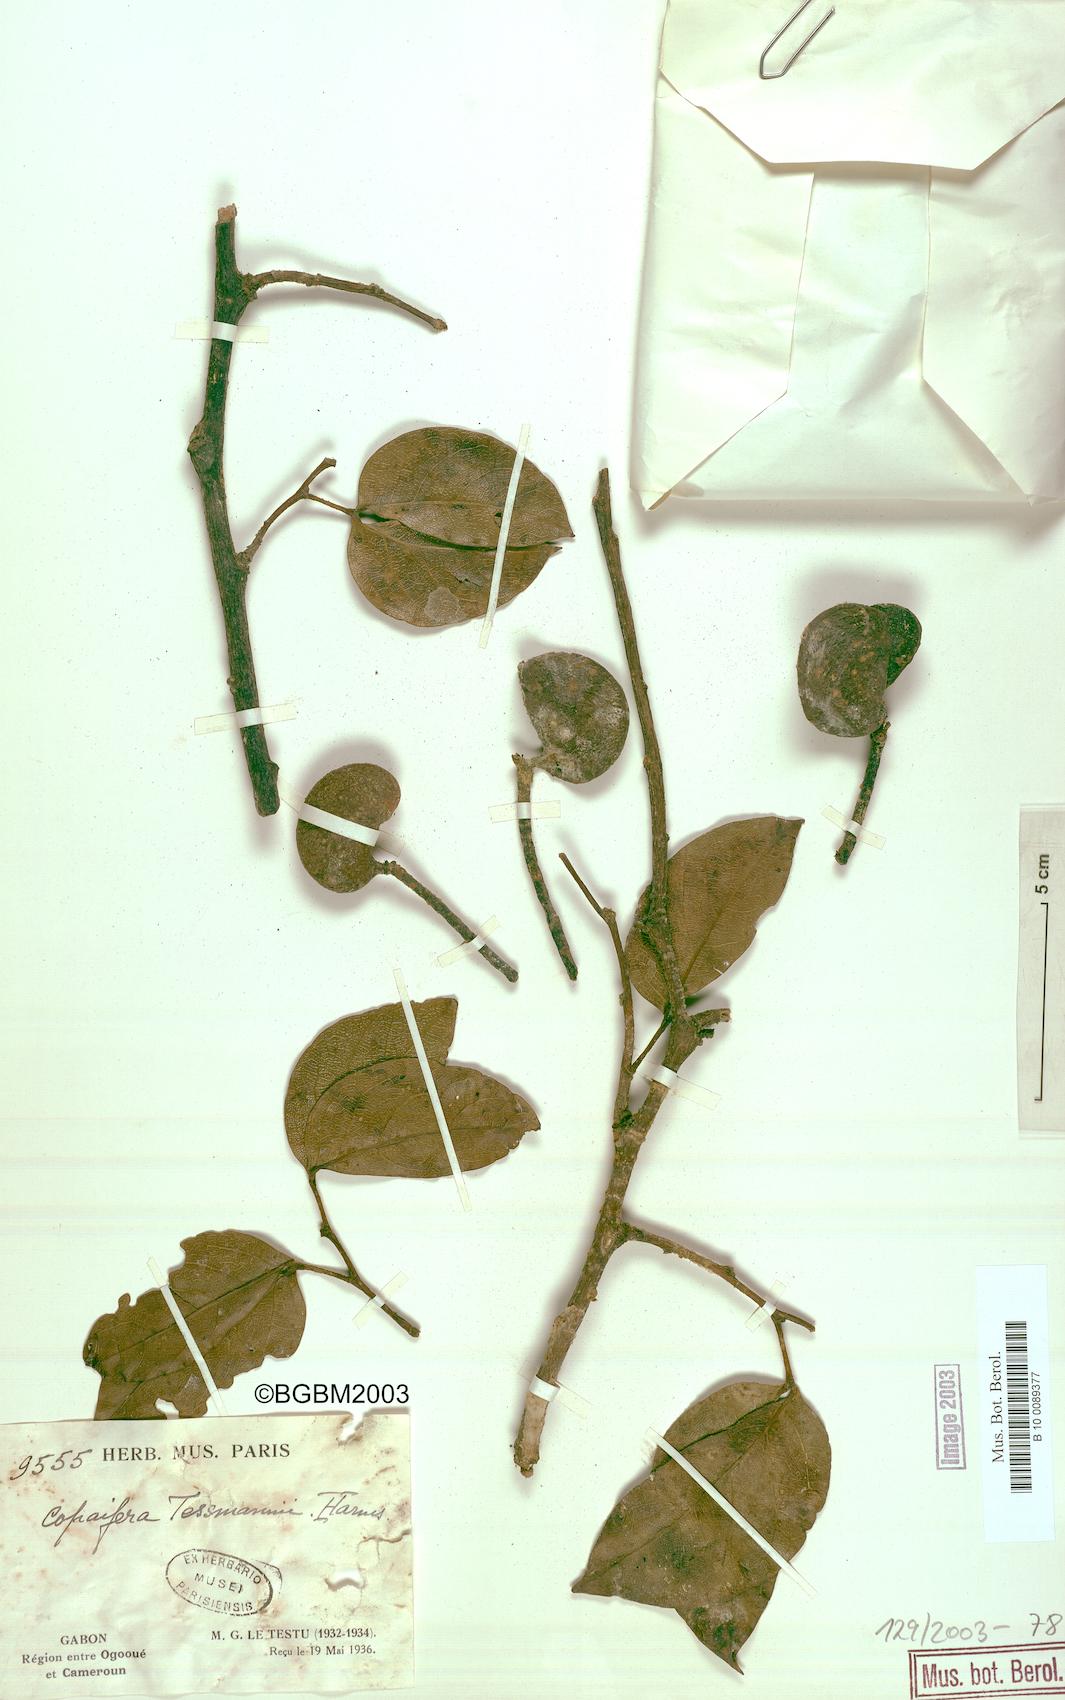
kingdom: Plantae
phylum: Tracheophyta
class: Magnoliopsida
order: Fabales
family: Fabaceae
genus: Guibourtia
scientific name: Guibourtia tessmannii
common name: Akume
